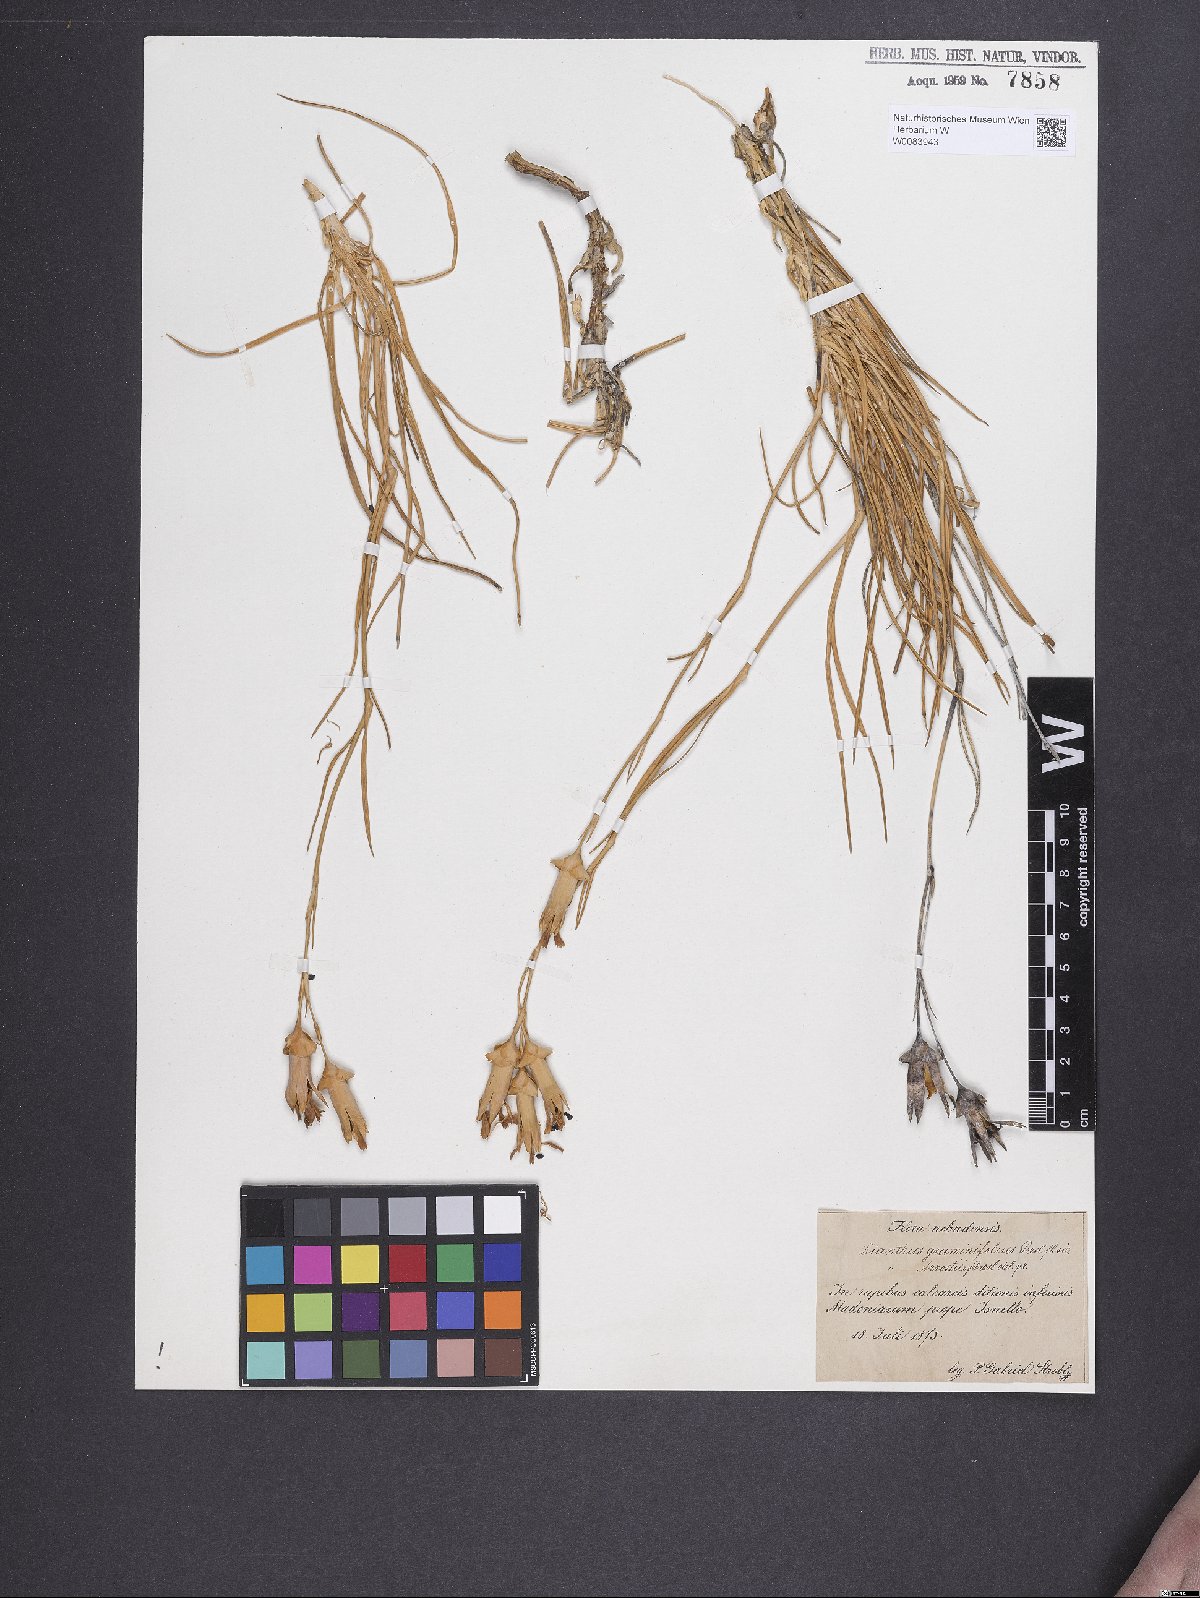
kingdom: Plantae
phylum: Tracheophyta
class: Magnoliopsida
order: Caryophyllales
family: Caryophyllaceae
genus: Dianthus
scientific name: Dianthus graminifolius
